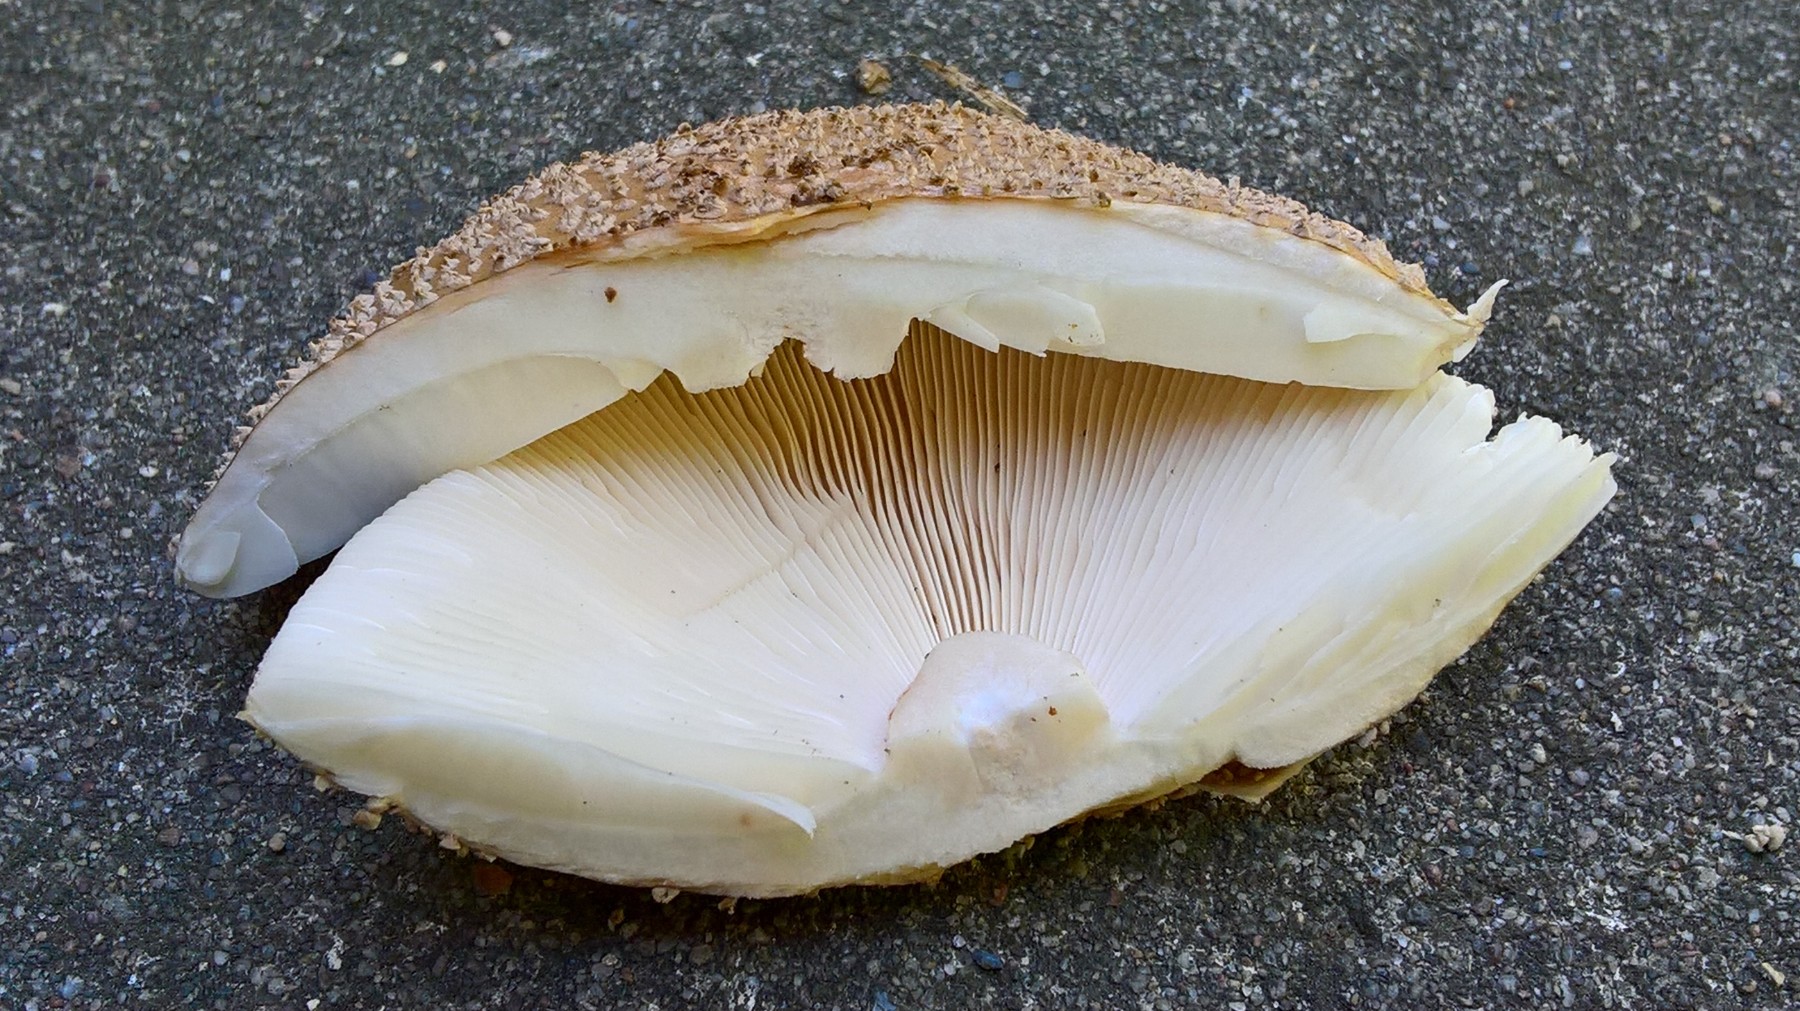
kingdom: Fungi
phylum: Basidiomycota
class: Agaricomycetes
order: Agaricales
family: Amanitaceae
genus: Amanita
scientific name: Amanita rubescens
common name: rødmende fluesvamp
